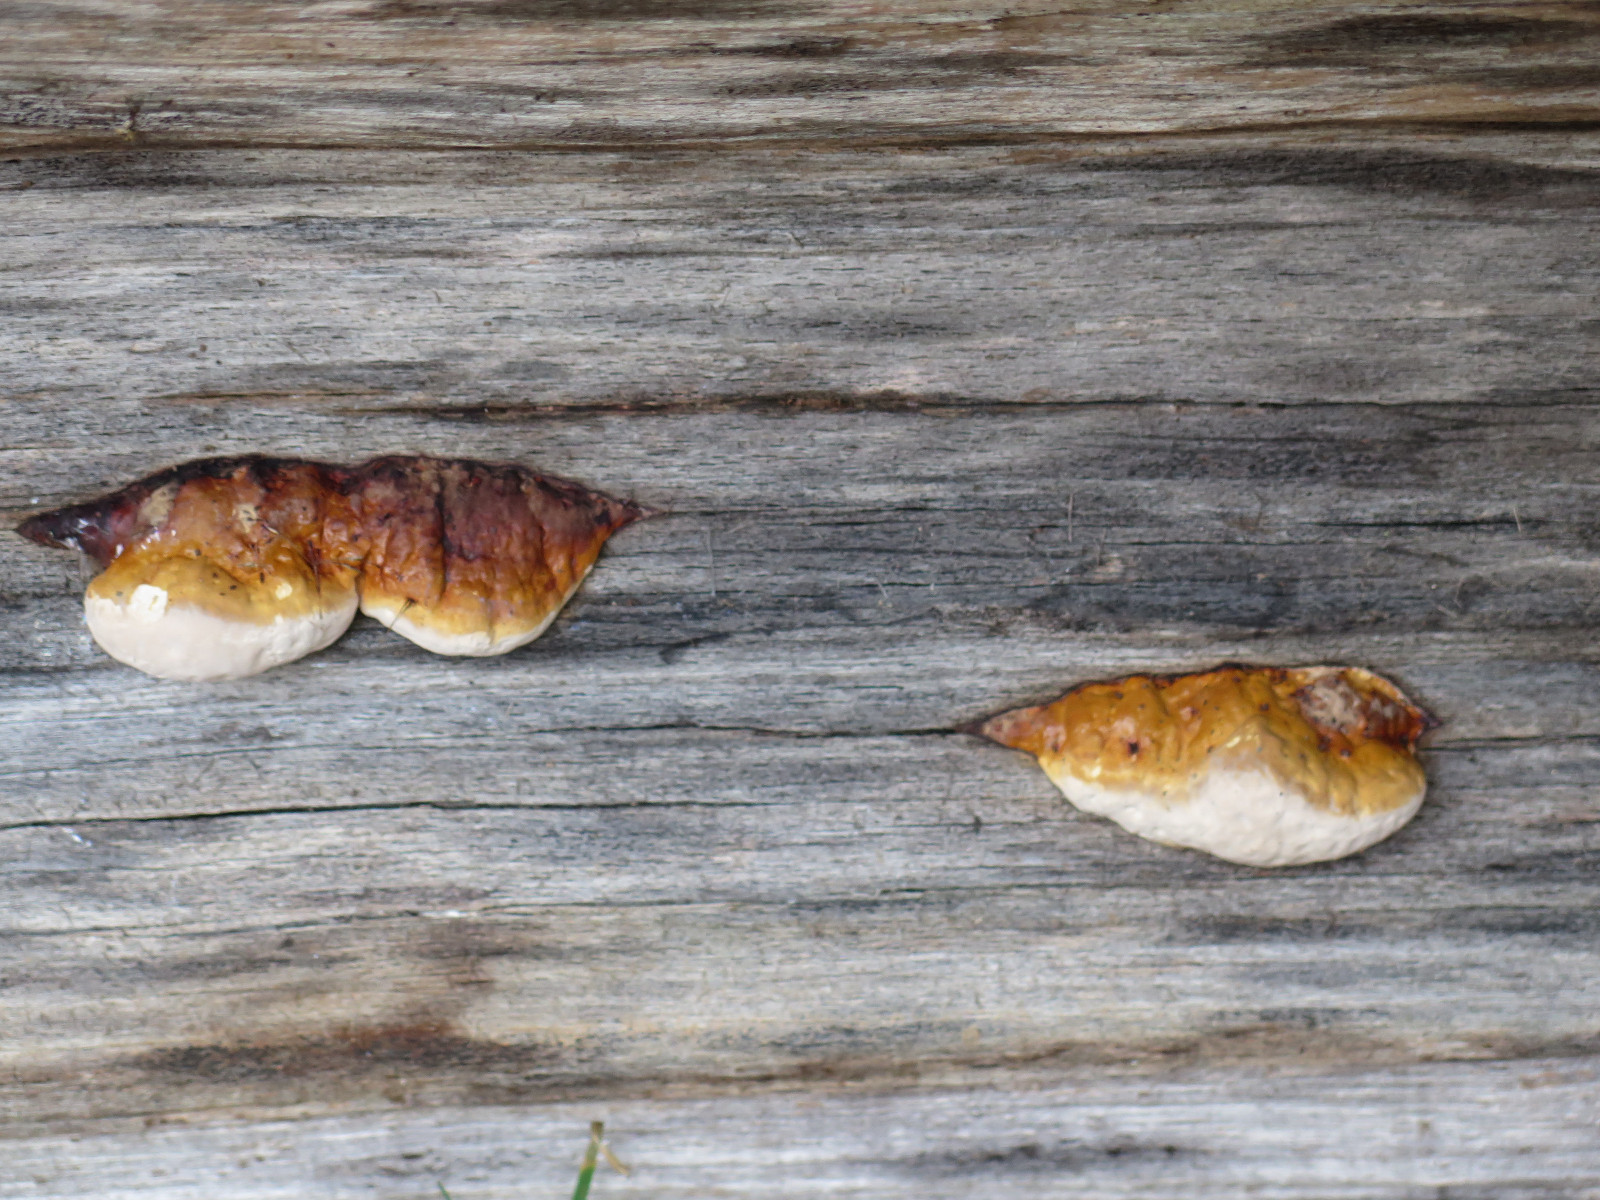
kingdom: Fungi
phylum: Basidiomycota
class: Agaricomycetes
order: Polyporales
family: Fomitopsidaceae
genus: Fomitopsis
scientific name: Fomitopsis pinicola
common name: randbæltet hovporesvamp
